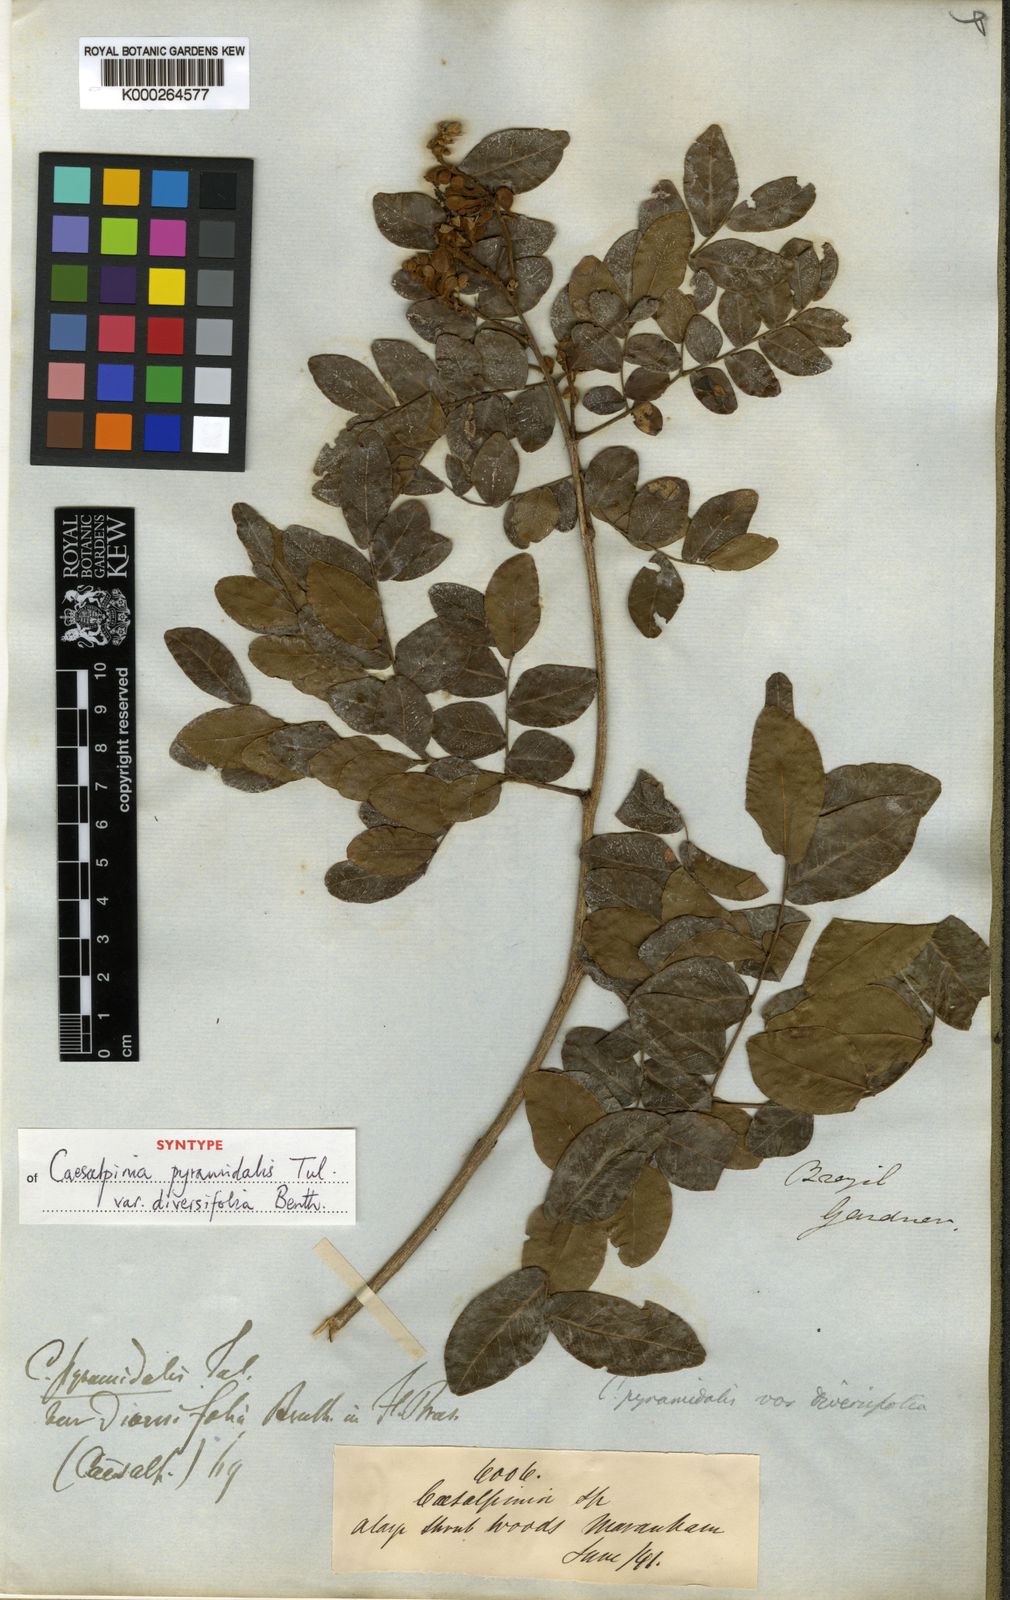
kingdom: Plantae
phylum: Tracheophyta
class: Magnoliopsida
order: Fabales
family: Fabaceae
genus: Cenostigma
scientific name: Cenostigma diversifolium
